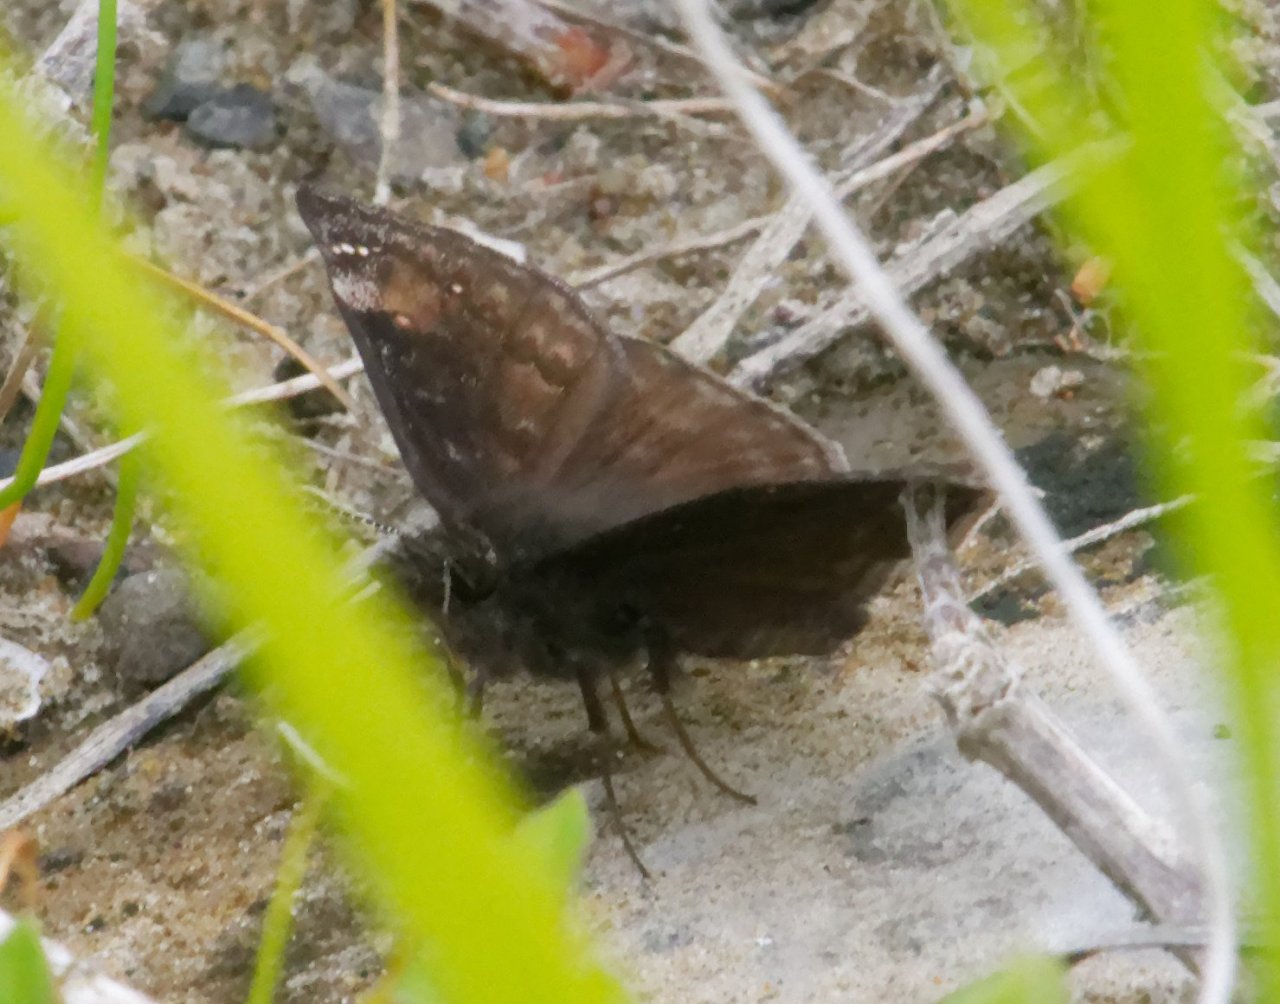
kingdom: Animalia
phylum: Arthropoda
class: Insecta
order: Lepidoptera
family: Hesperiidae
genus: Gesta
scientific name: Gesta
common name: Wild Indigo Duskywing
